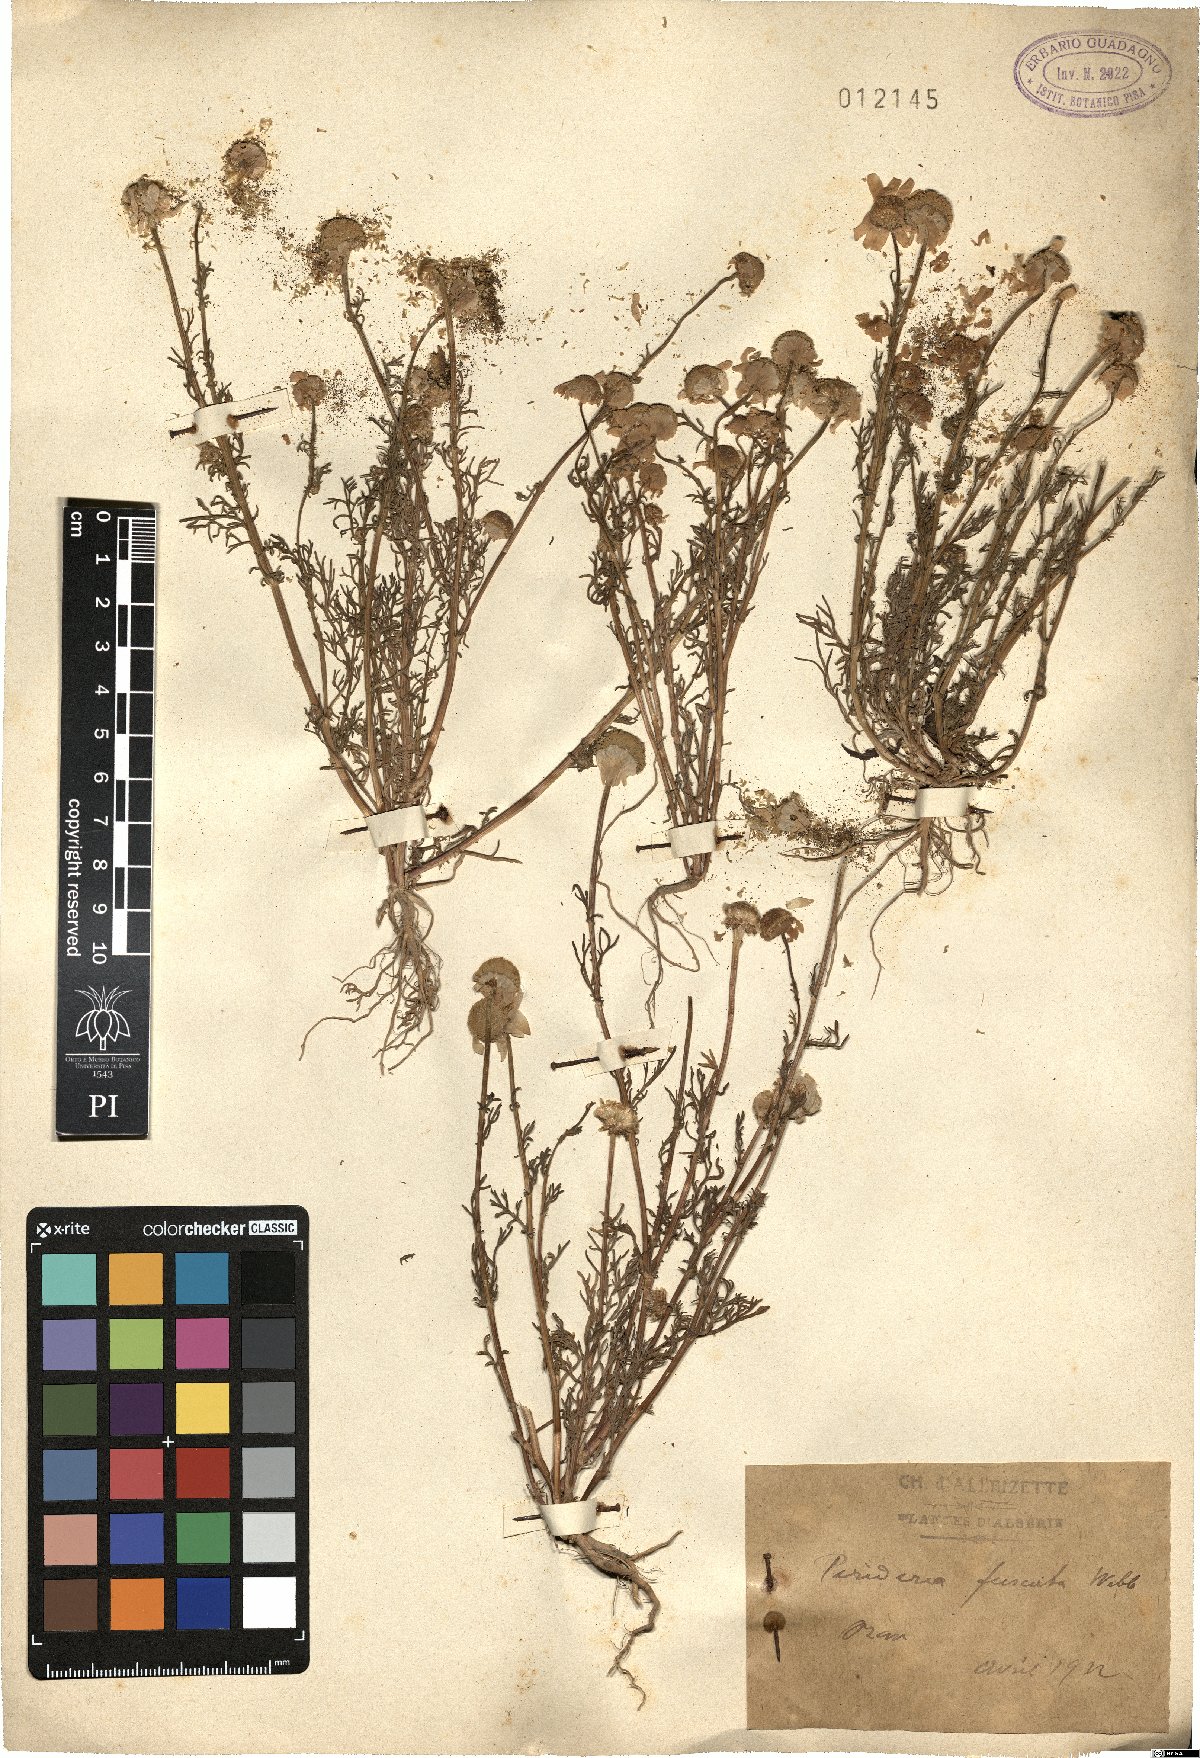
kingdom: Plantae
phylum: Tracheophyta
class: Magnoliopsida
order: Asterales
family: Asteraceae
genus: Chamaemelum
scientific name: Chamaemelum fuscatum
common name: Chamomile
